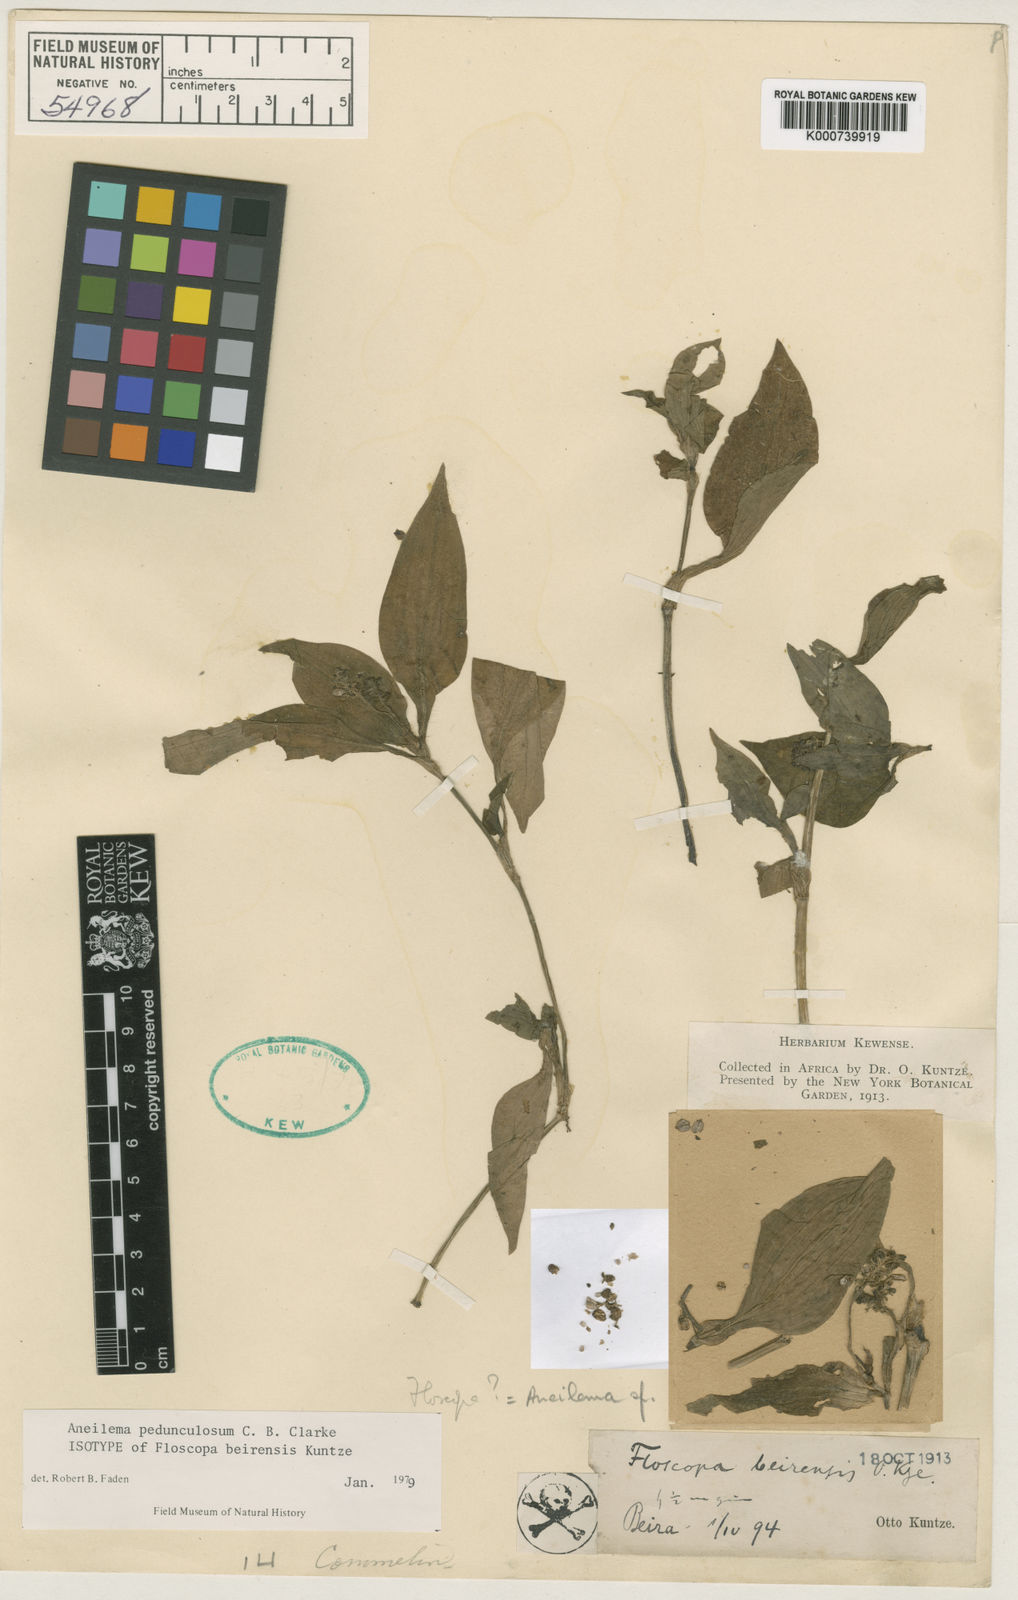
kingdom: Plantae
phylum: Tracheophyta
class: Liliopsida
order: Commelinales
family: Commelinaceae
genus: Aneilema
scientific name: Aneilema pedunculosum
